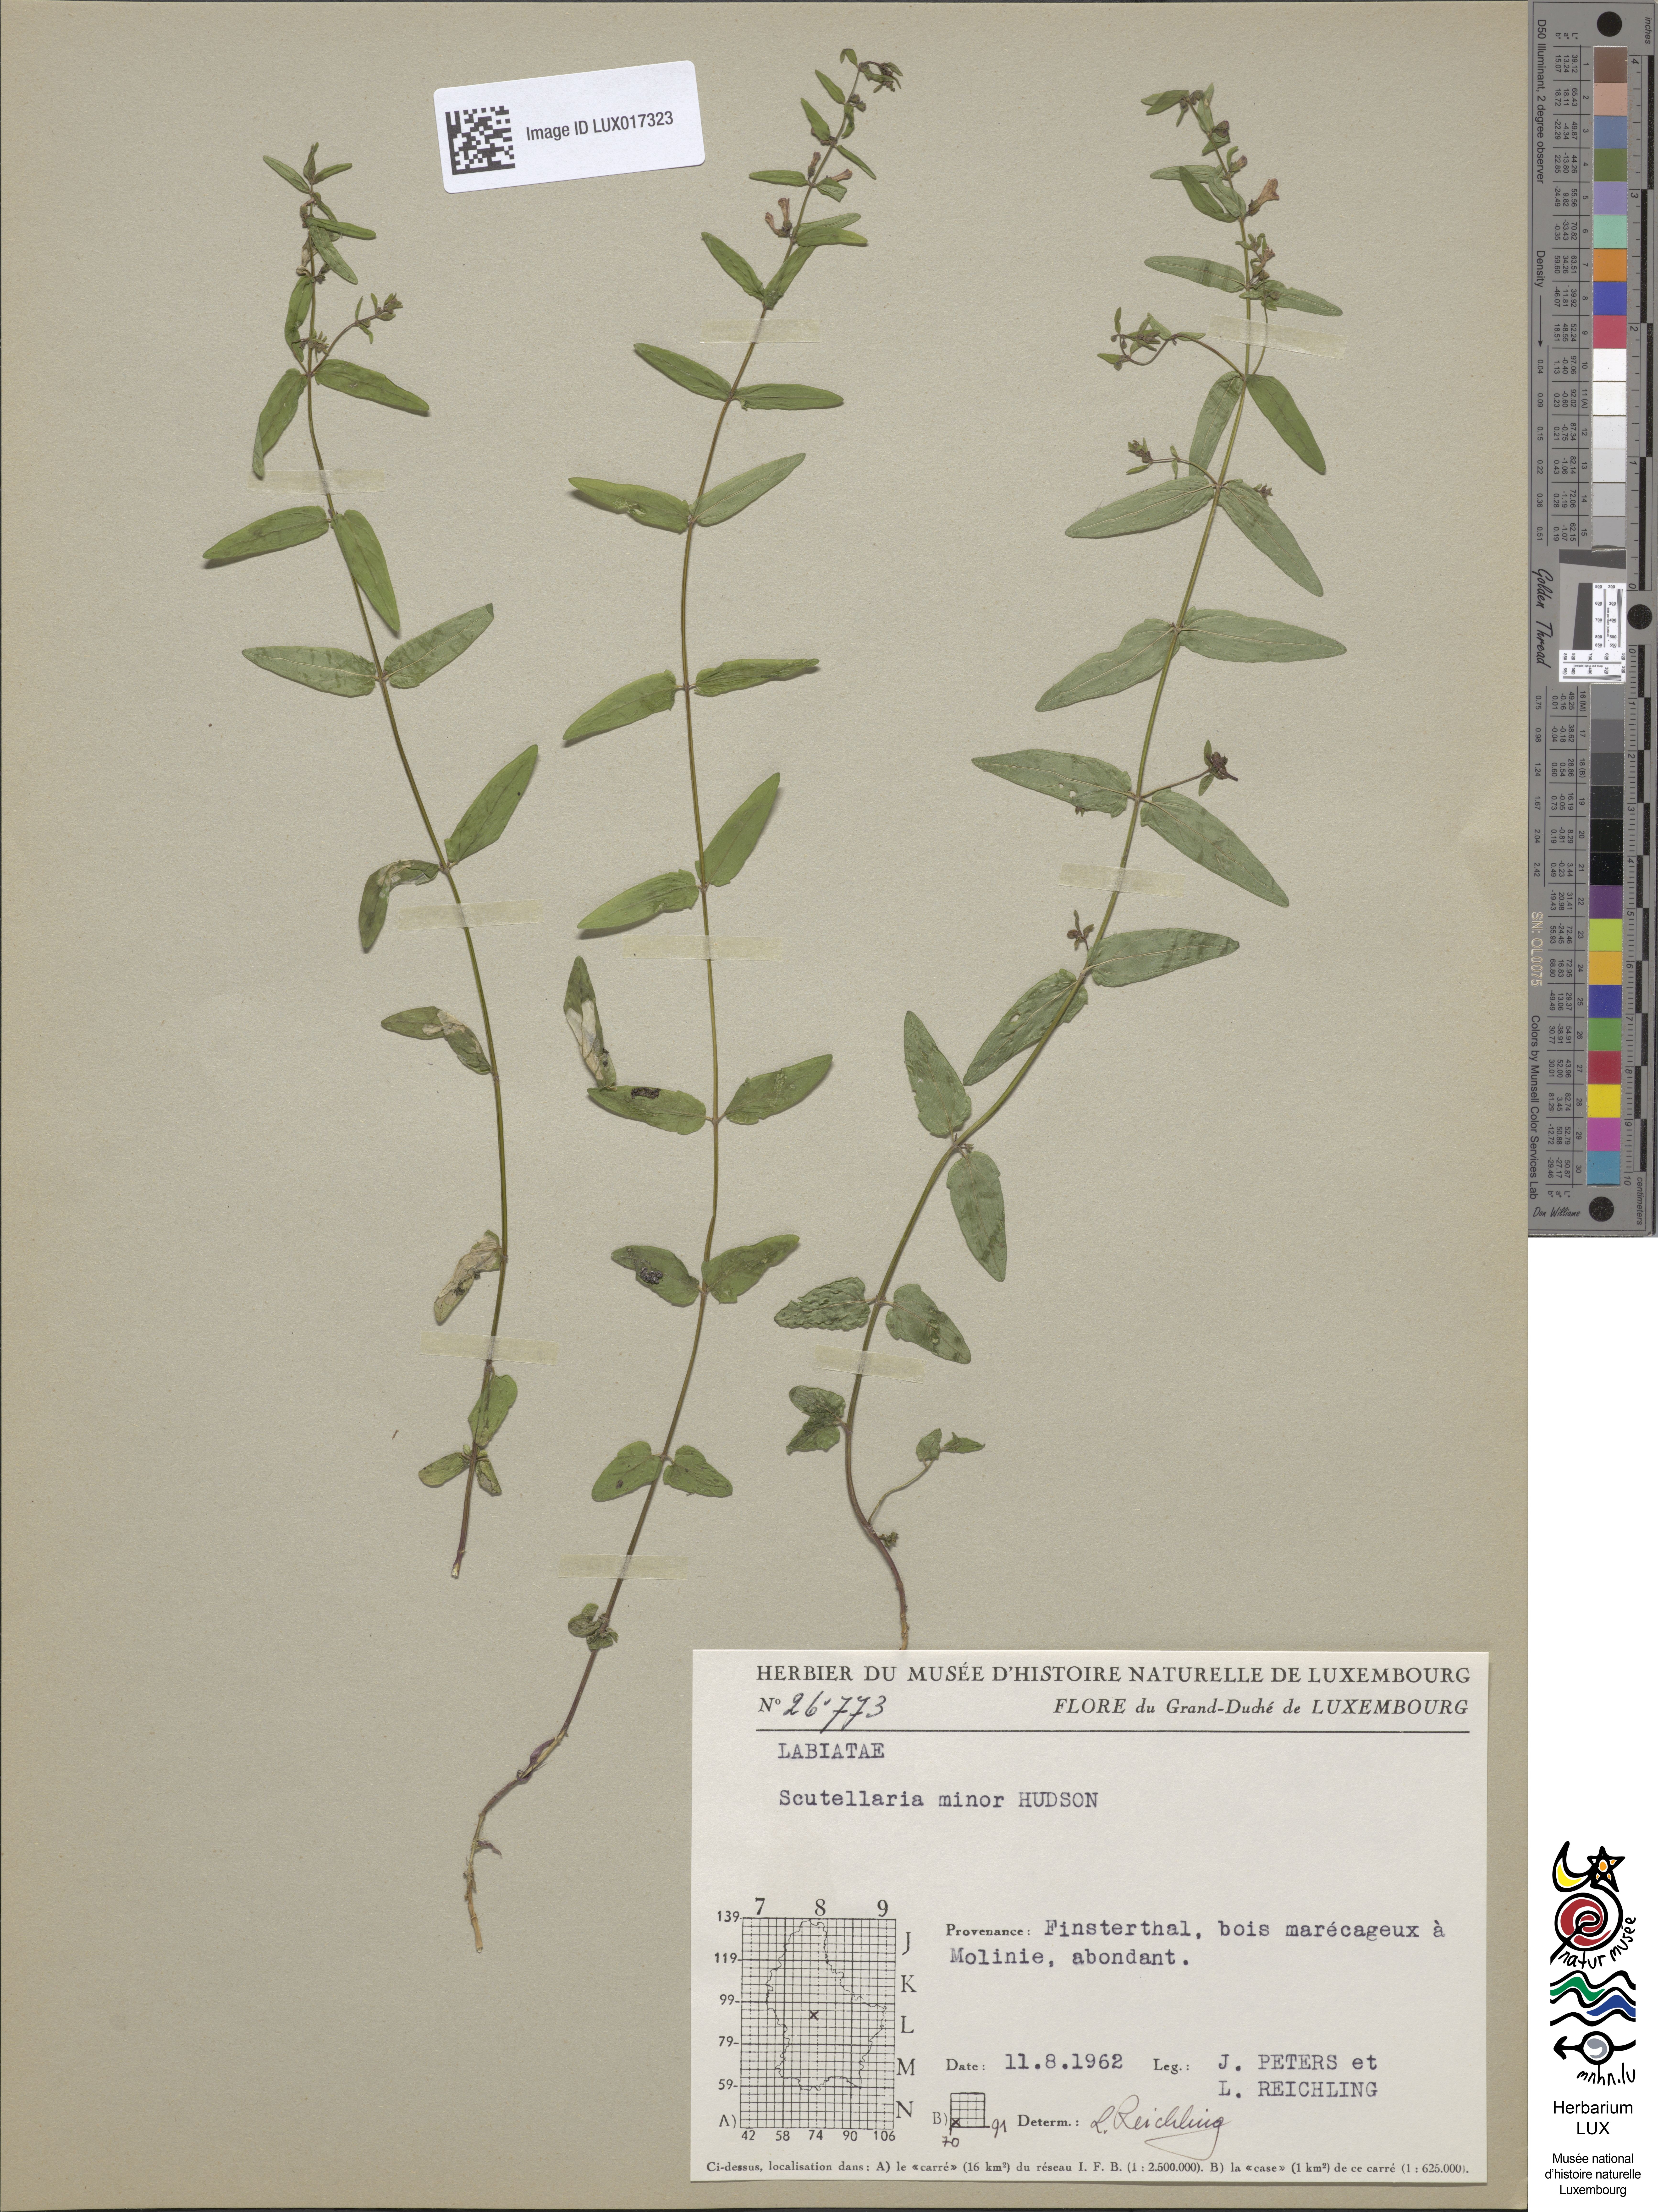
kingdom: Plantae
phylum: Tracheophyta
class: Magnoliopsida
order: Lamiales
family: Lamiaceae
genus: Scutellaria
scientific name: Scutellaria minor
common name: Lesser skullcap
